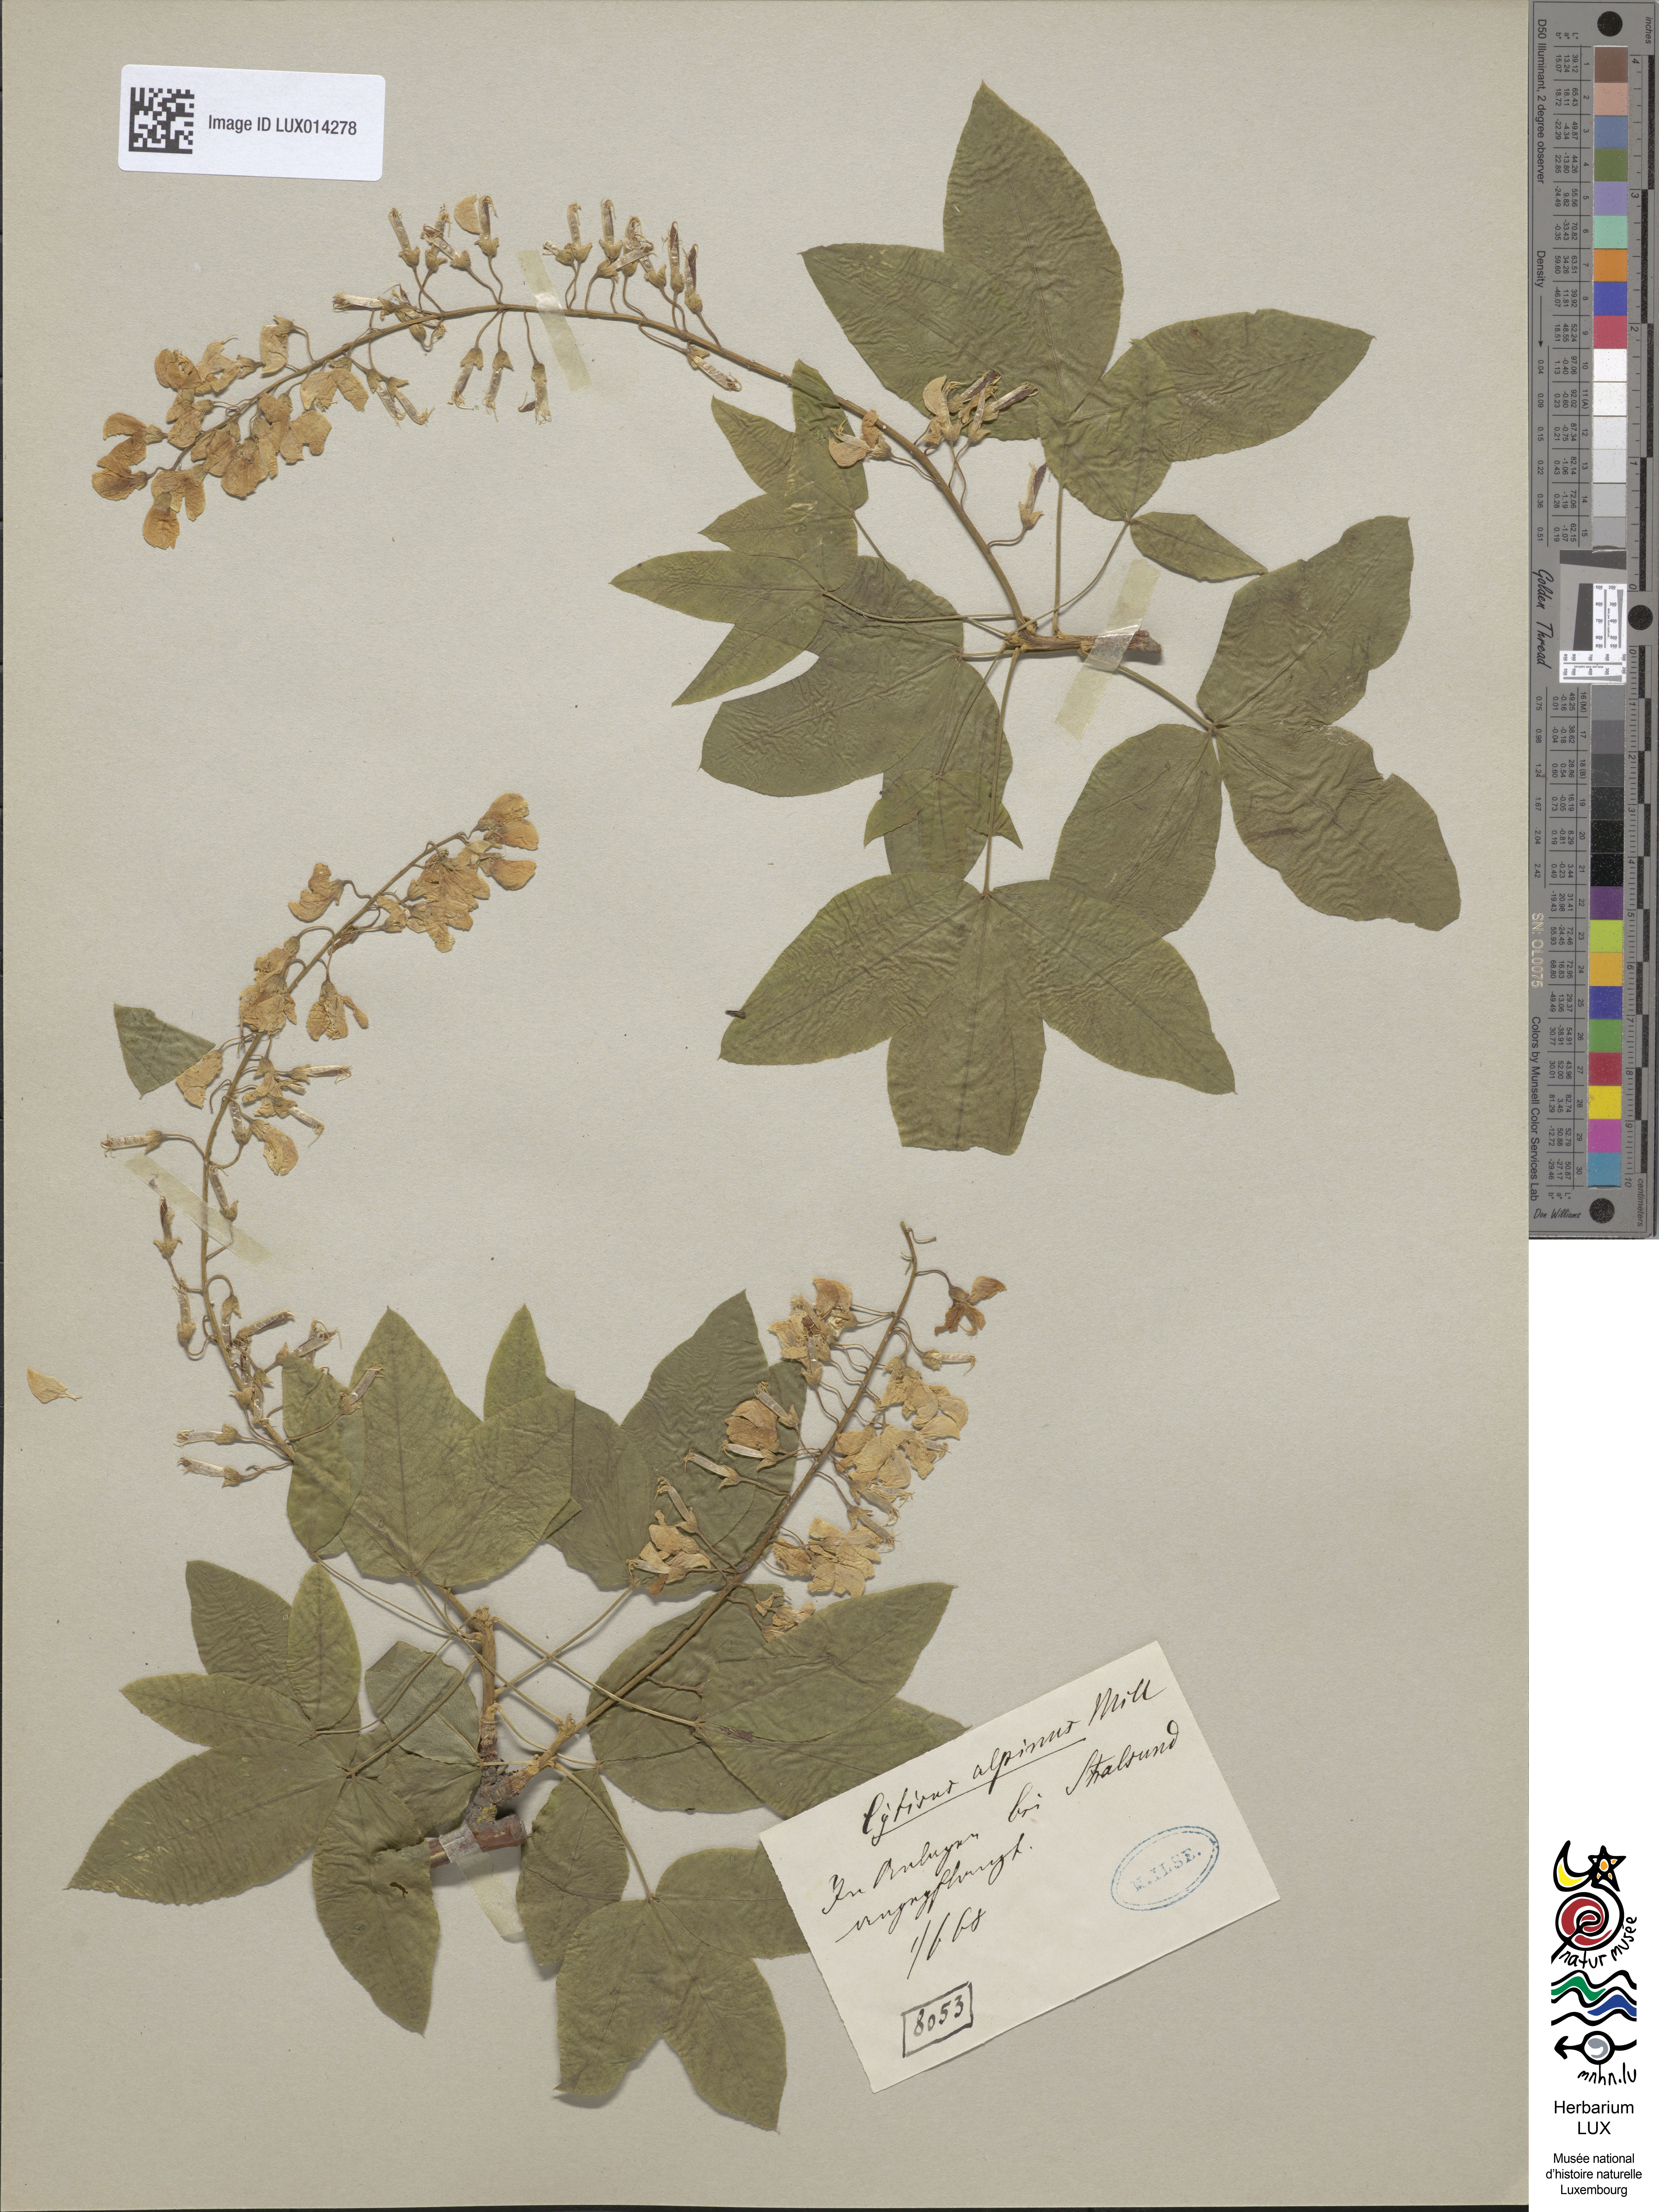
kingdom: Plantae
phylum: Tracheophyta
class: Magnoliopsida
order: Fabales
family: Fabaceae
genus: Laburnum
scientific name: Laburnum alpinum
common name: Scottish laburnum
